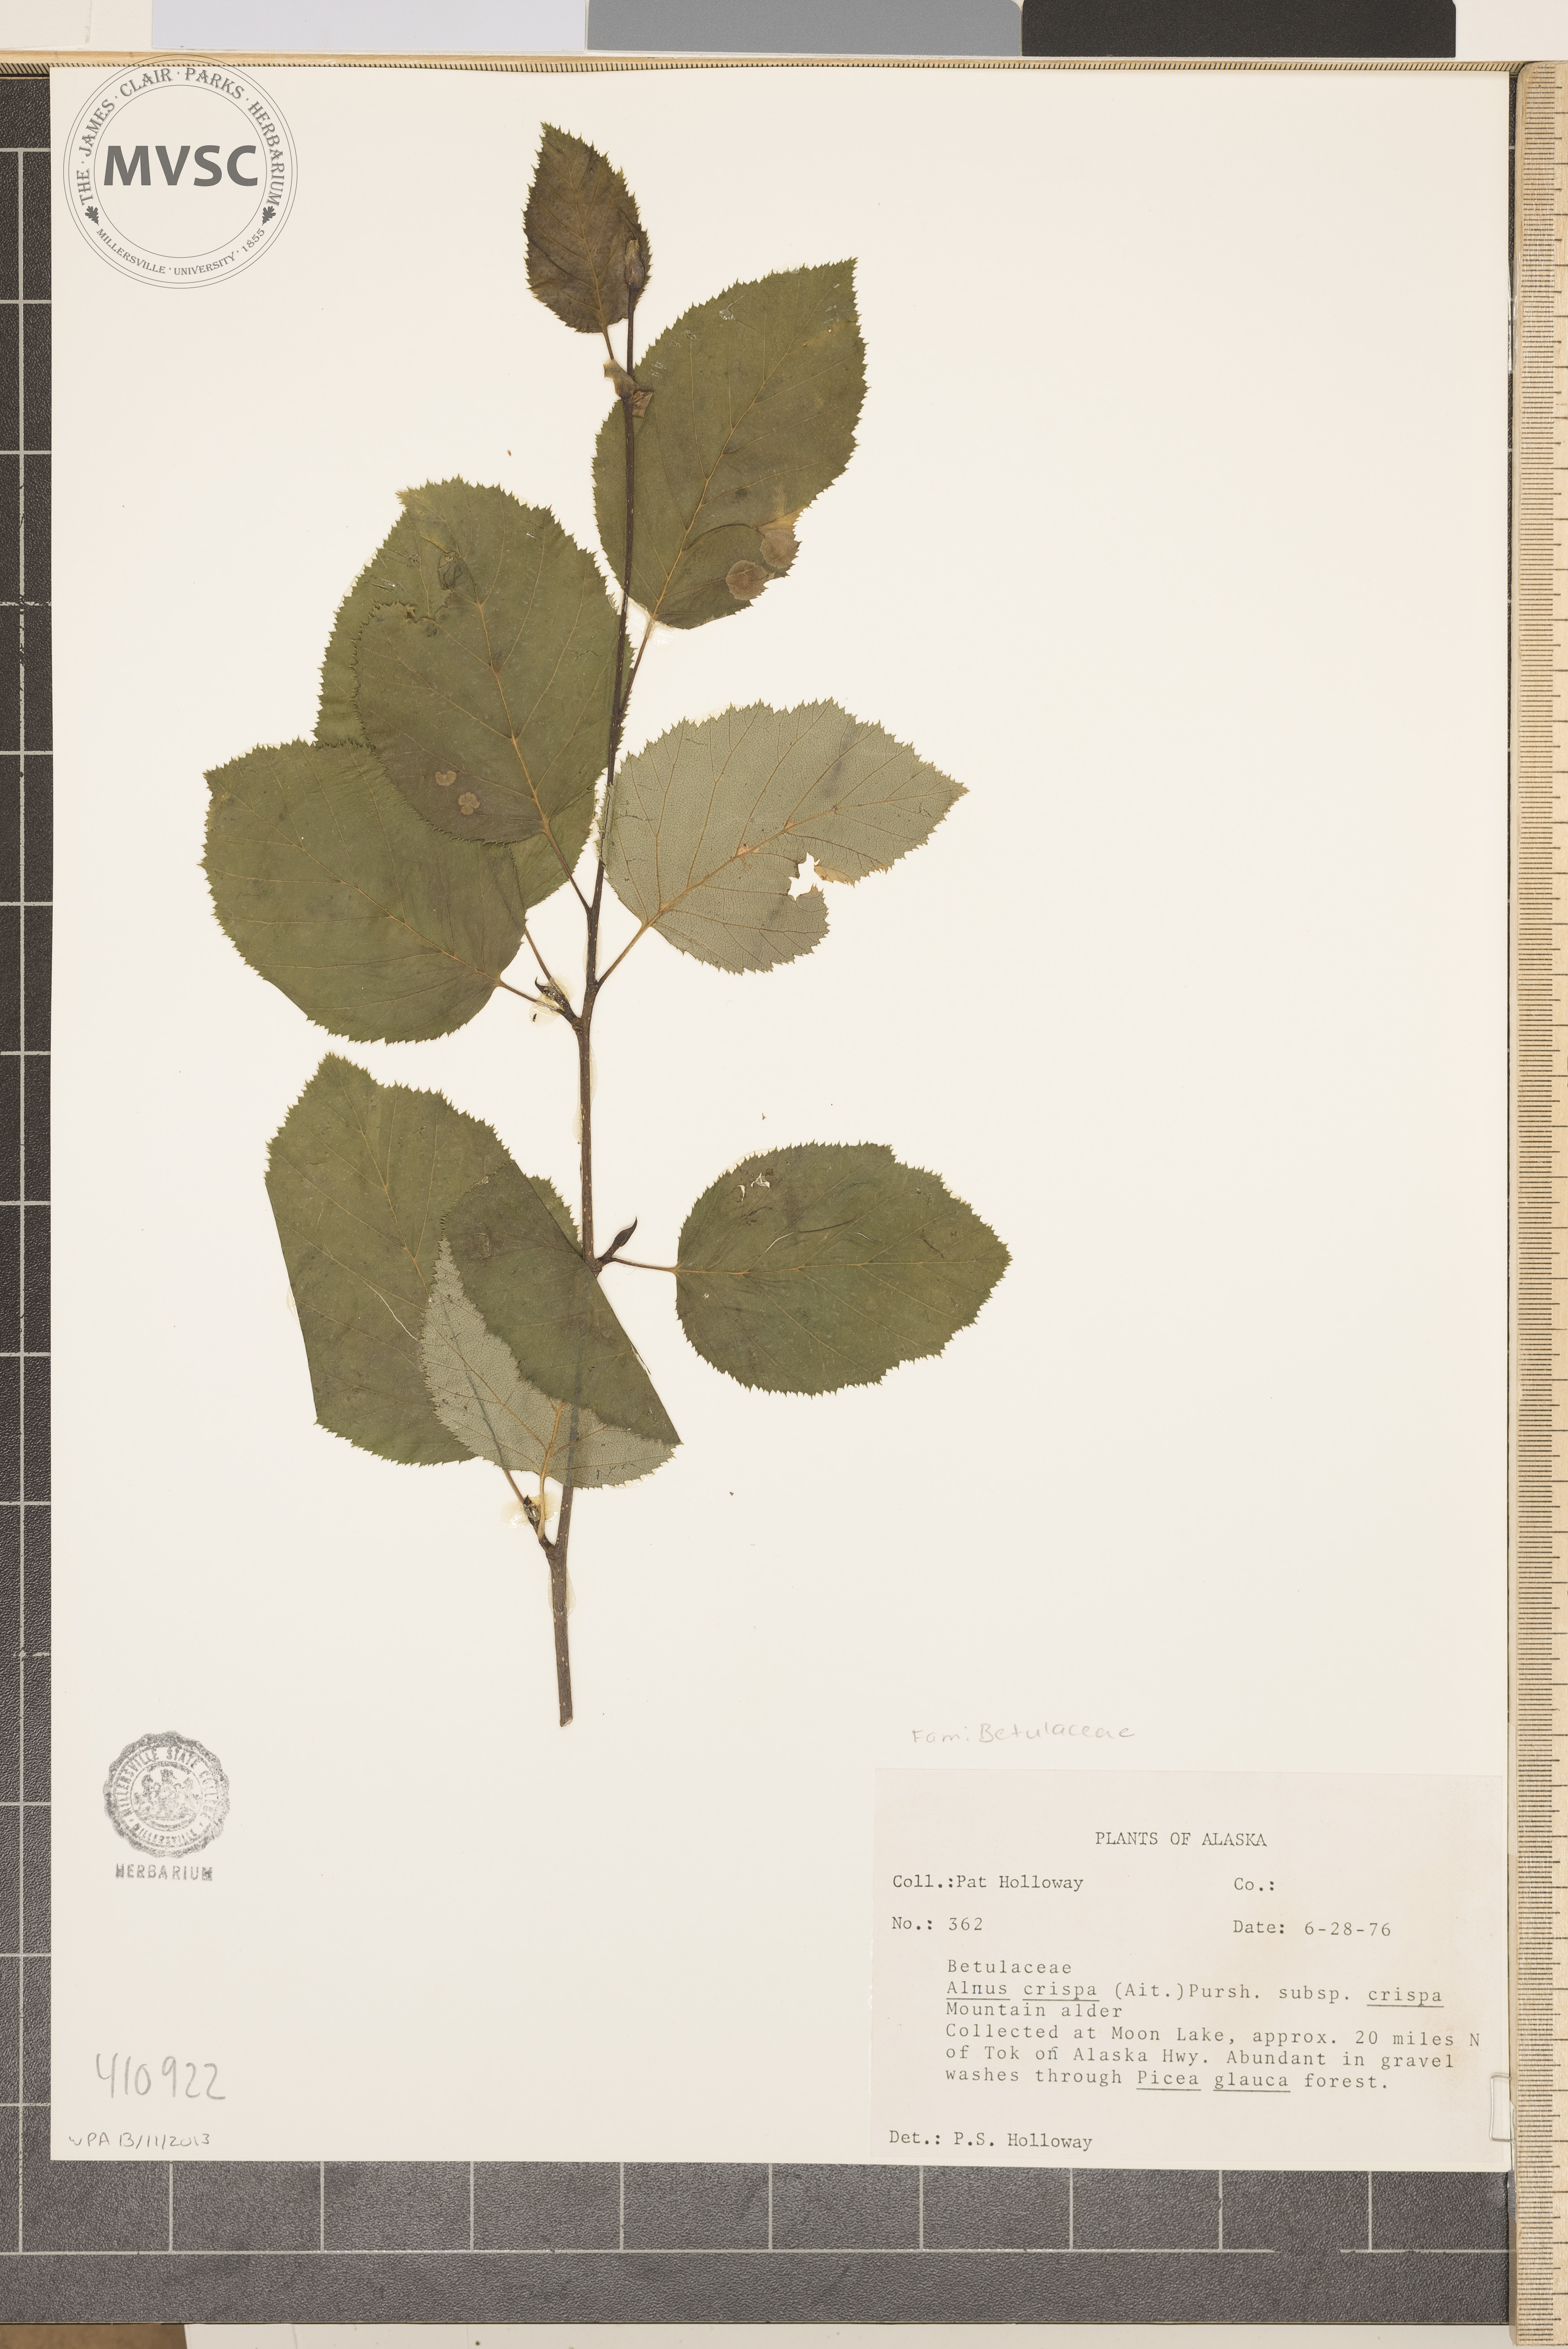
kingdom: Plantae
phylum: Tracheophyta
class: Magnoliopsida
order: Fagales
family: Betulaceae
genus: Alnus
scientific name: Alnus crispa
